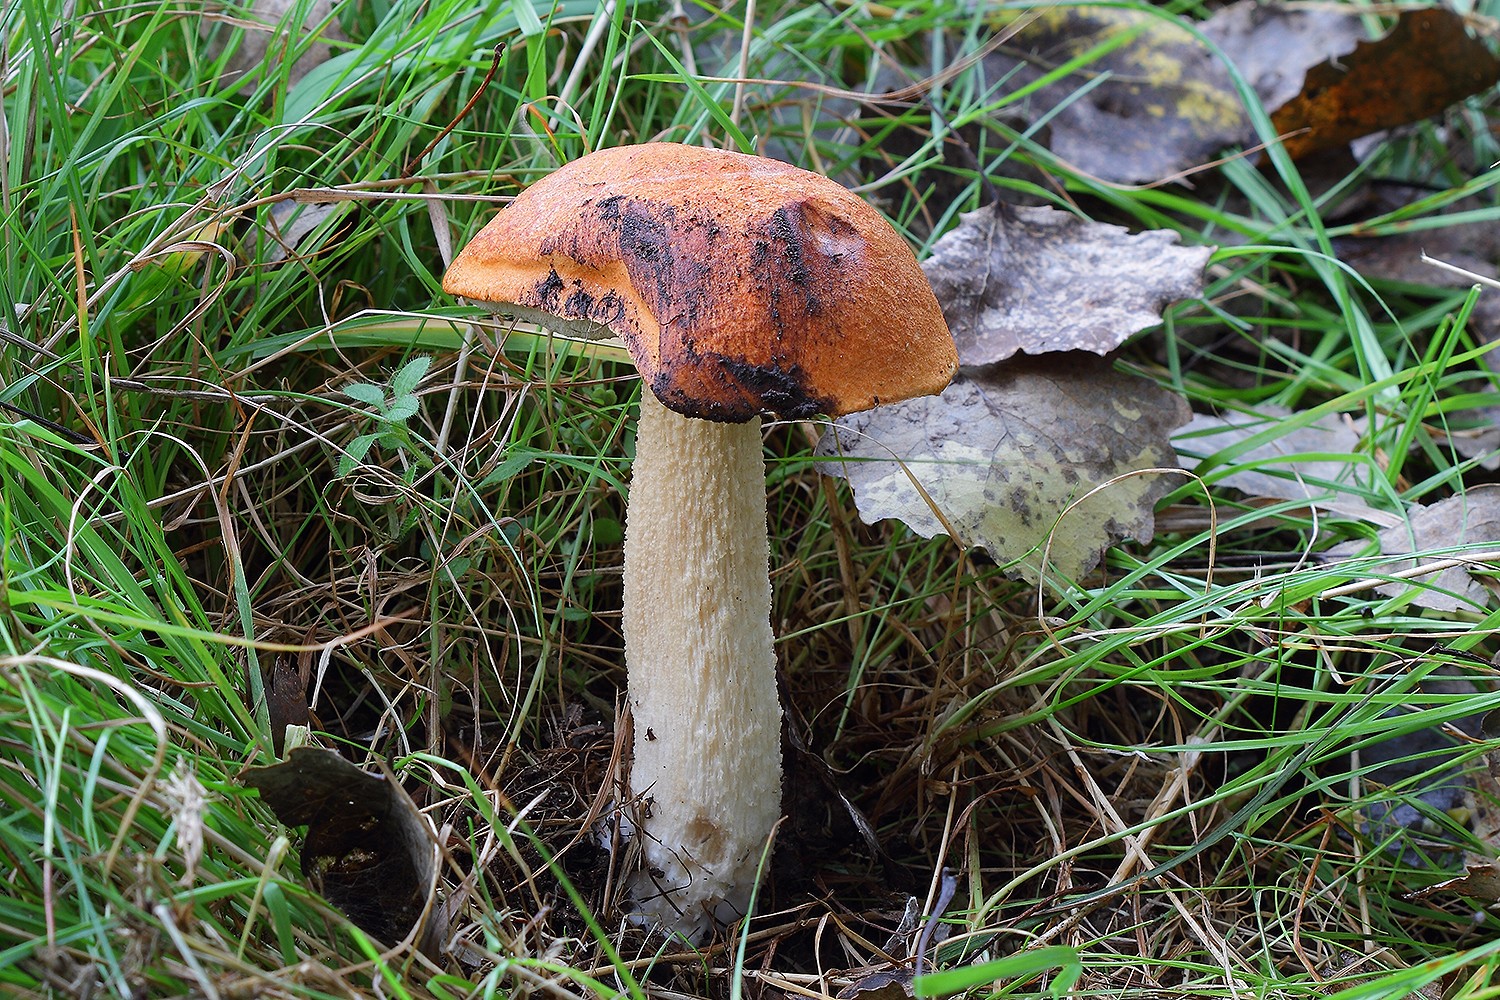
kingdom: Fungi
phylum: Basidiomycota
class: Agaricomycetes
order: Boletales
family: Boletaceae
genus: Leccinum
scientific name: Leccinum albostipitatum
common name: aspe-skælrørhat
